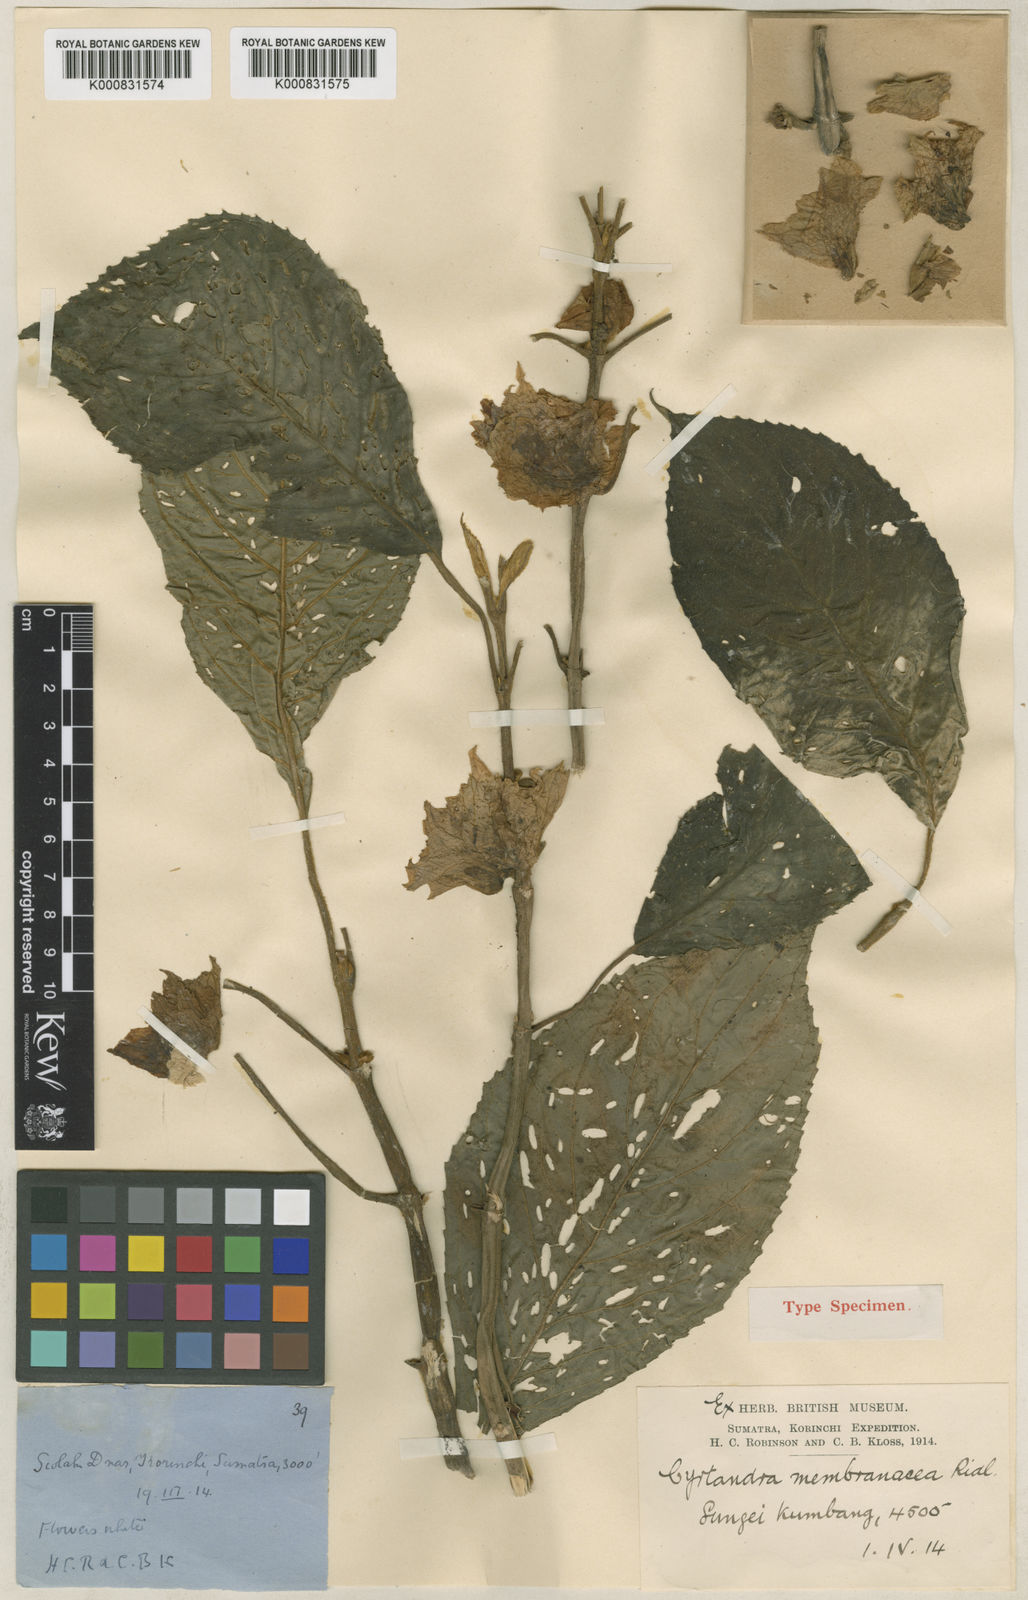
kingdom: Plantae
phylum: Tracheophyta
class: Magnoliopsida
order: Lamiales
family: Gesneriaceae
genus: Cyrtandra
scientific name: Cyrtandra membranacea
